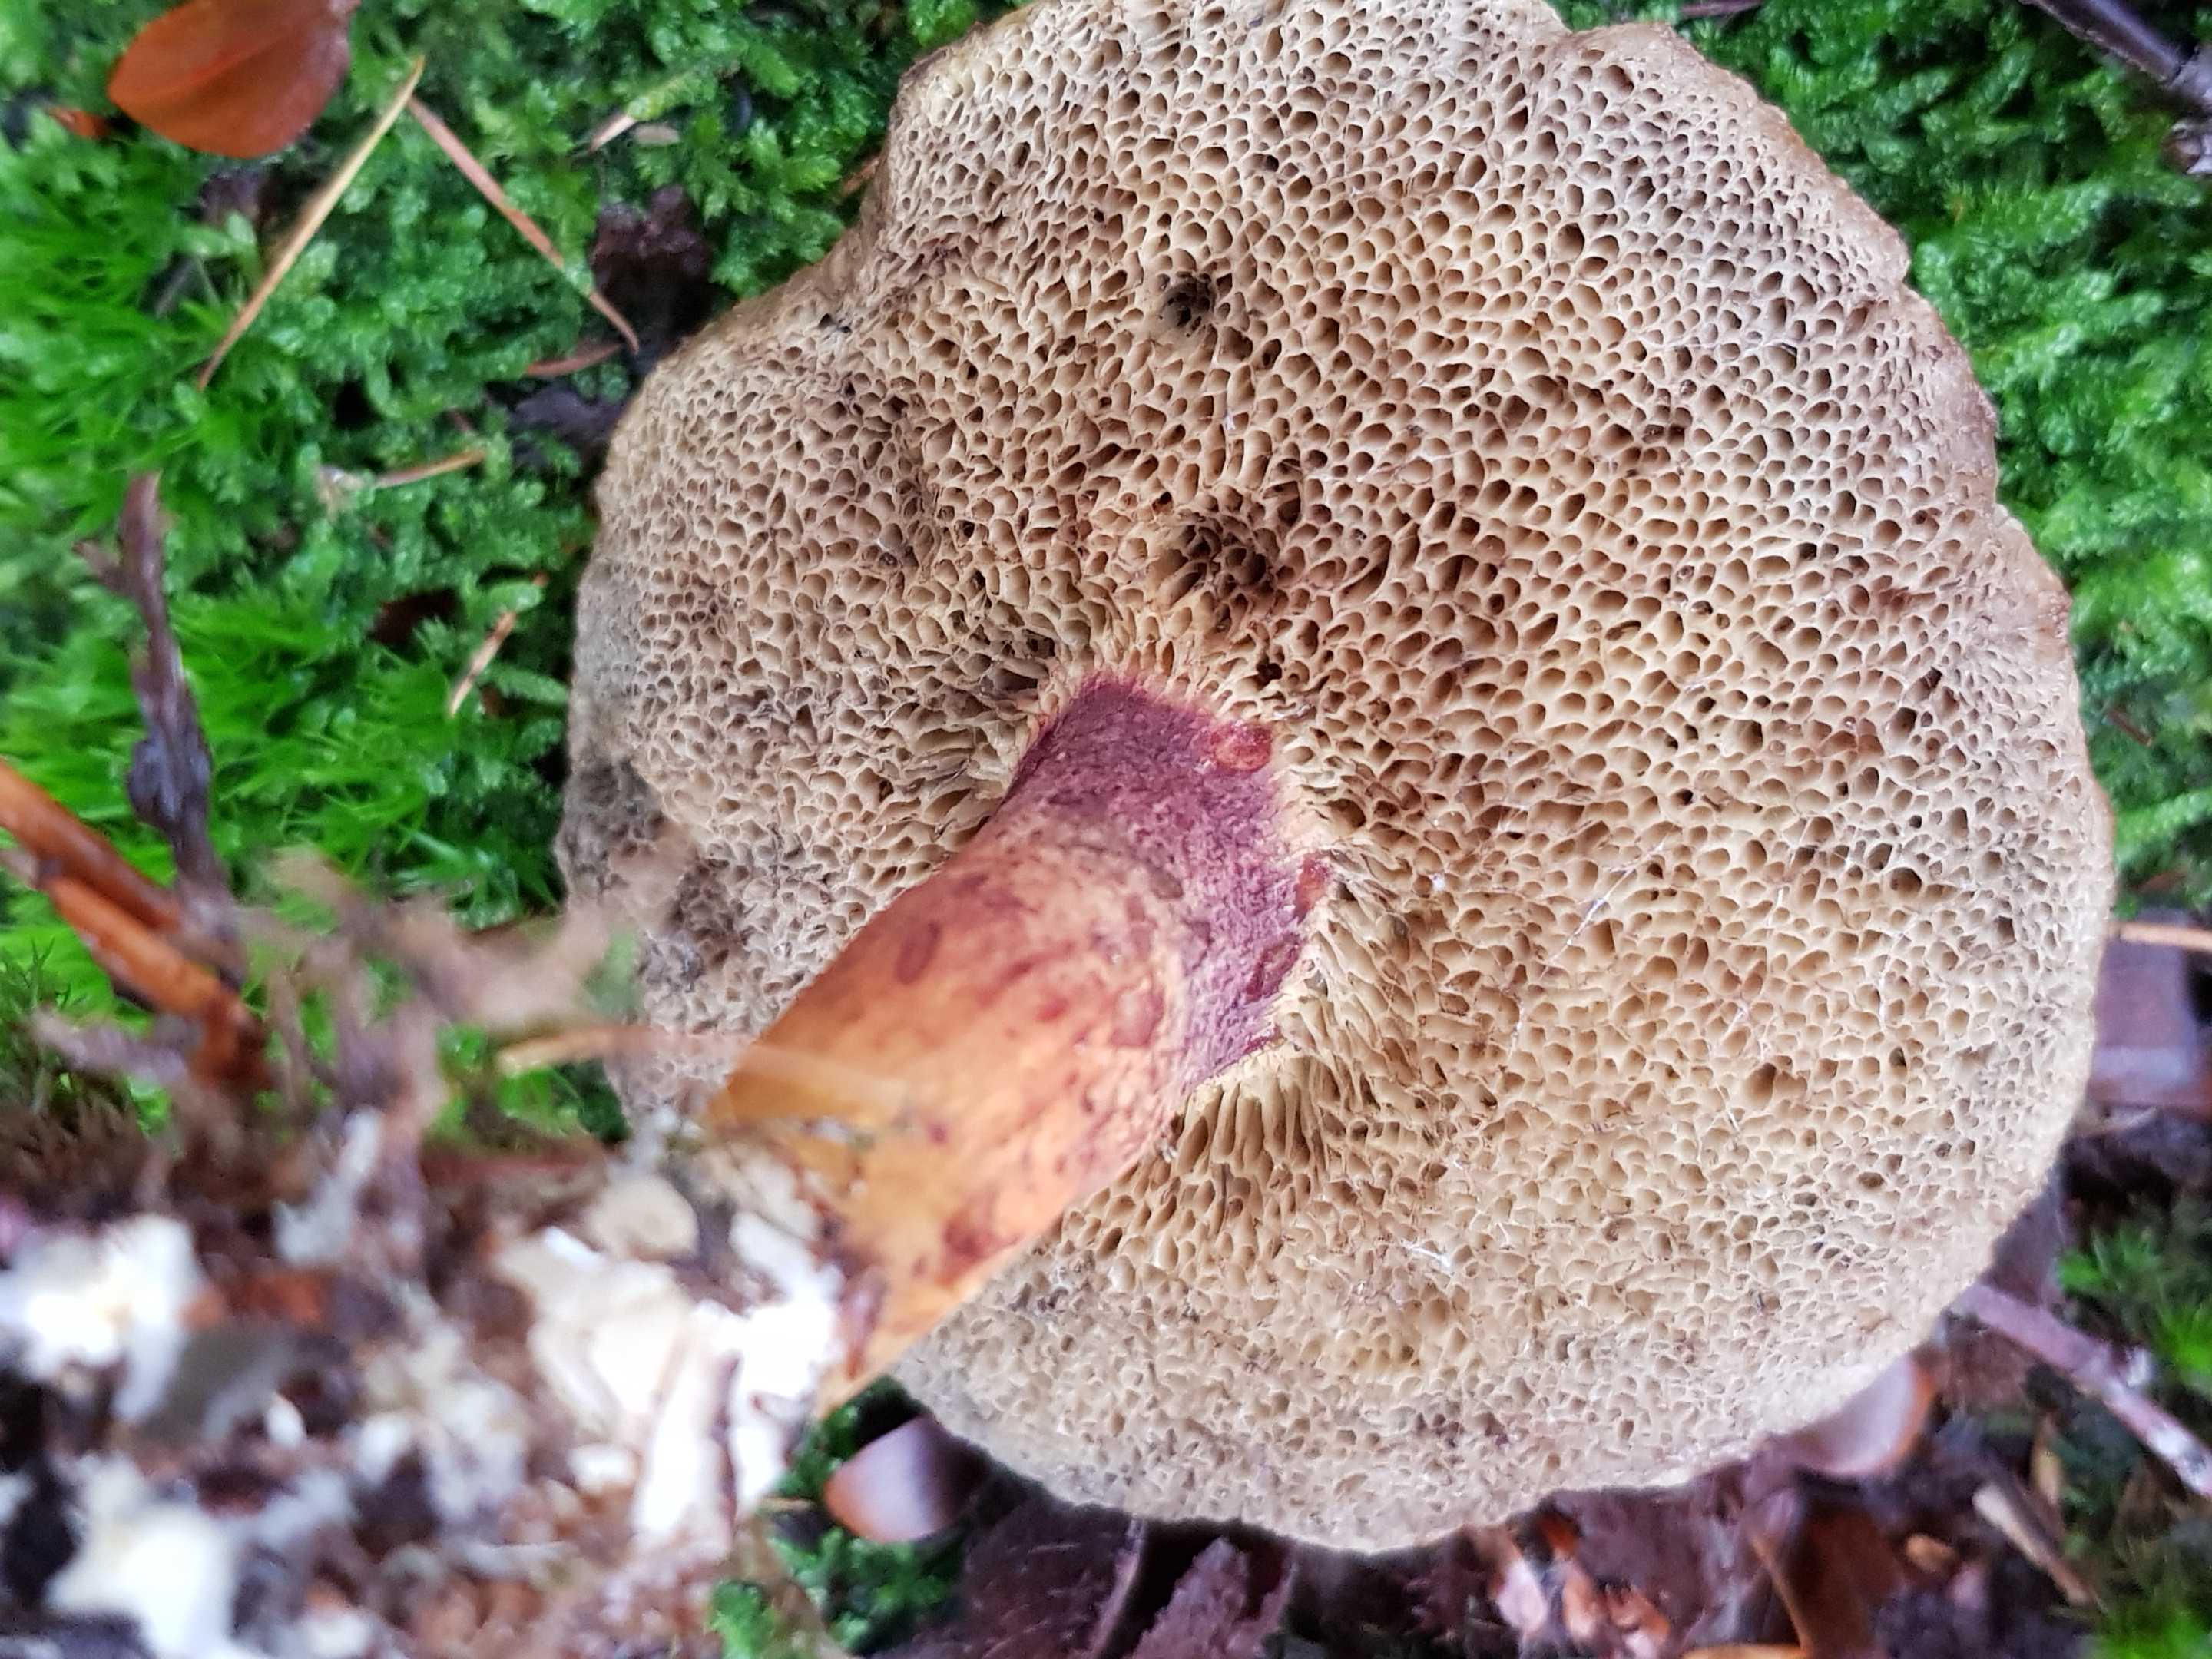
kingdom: Fungi
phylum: Basidiomycota
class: Agaricomycetes
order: Boletales
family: Boletaceae
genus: Xerocomellus
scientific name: Xerocomellus
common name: dværgrørhat
